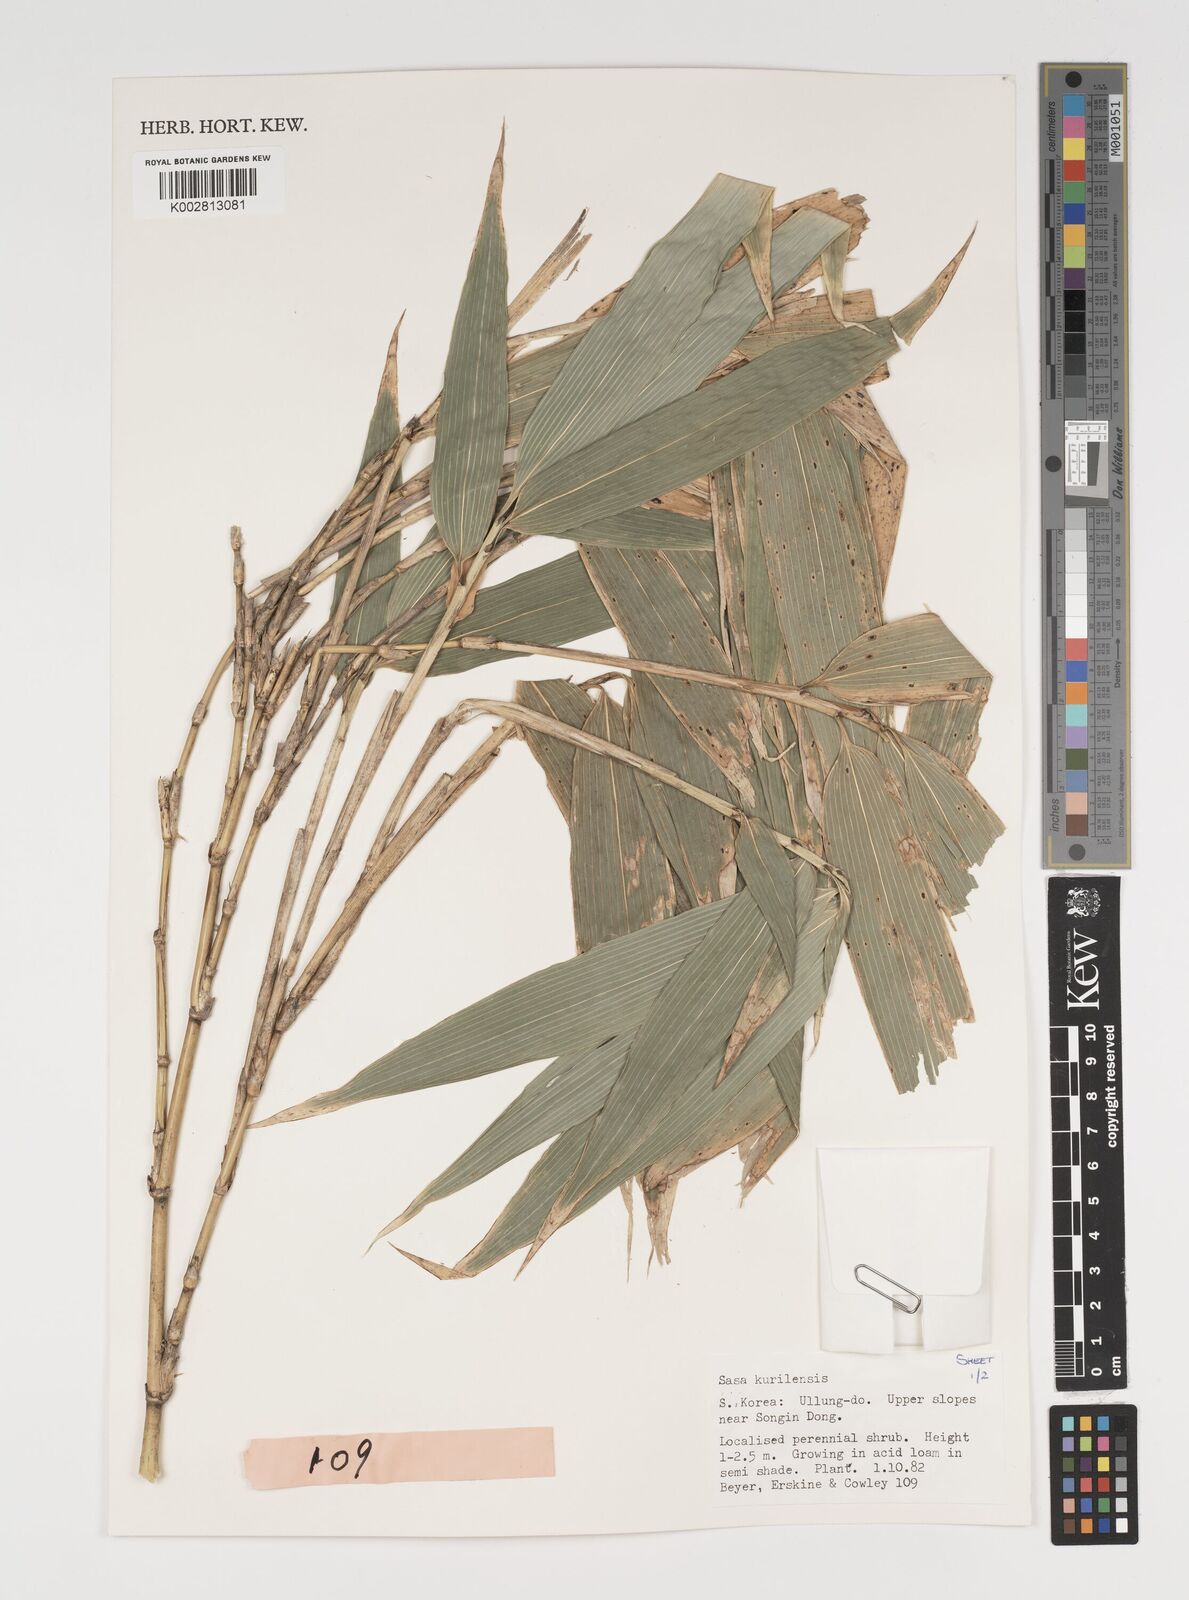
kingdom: Plantae
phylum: Tracheophyta
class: Liliopsida
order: Poales
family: Poaceae
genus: Sasa
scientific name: Sasa kurilensis
